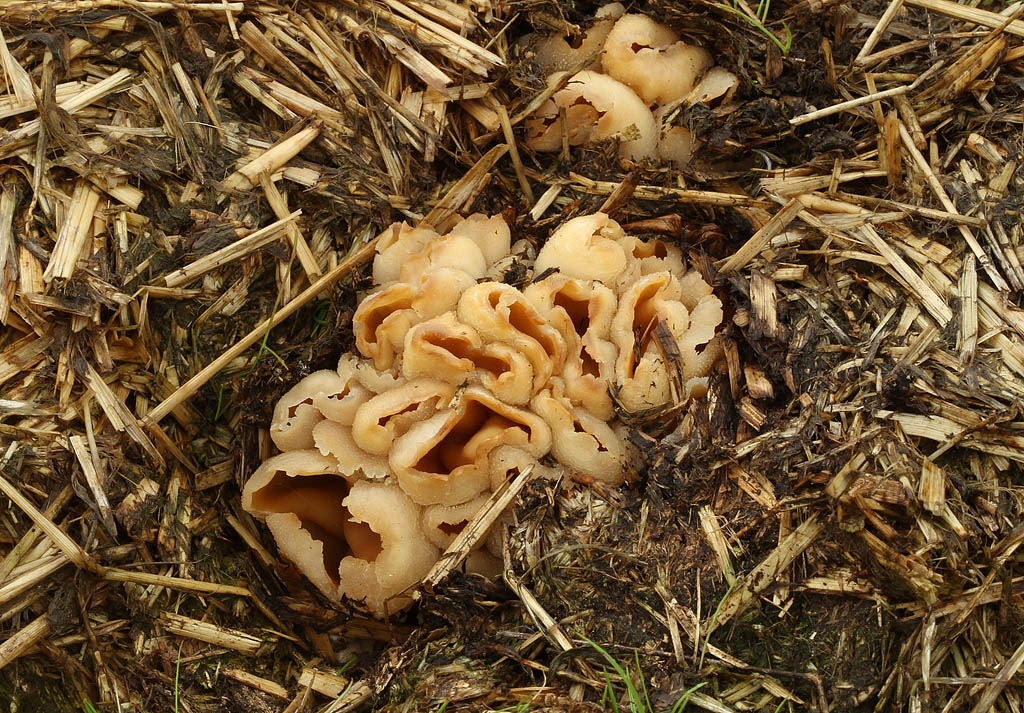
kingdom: Fungi
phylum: Ascomycota
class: Pezizomycetes
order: Pezizales
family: Pezizaceae
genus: Peziza
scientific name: Peziza vesiculosa
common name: blære-bægersvamp
